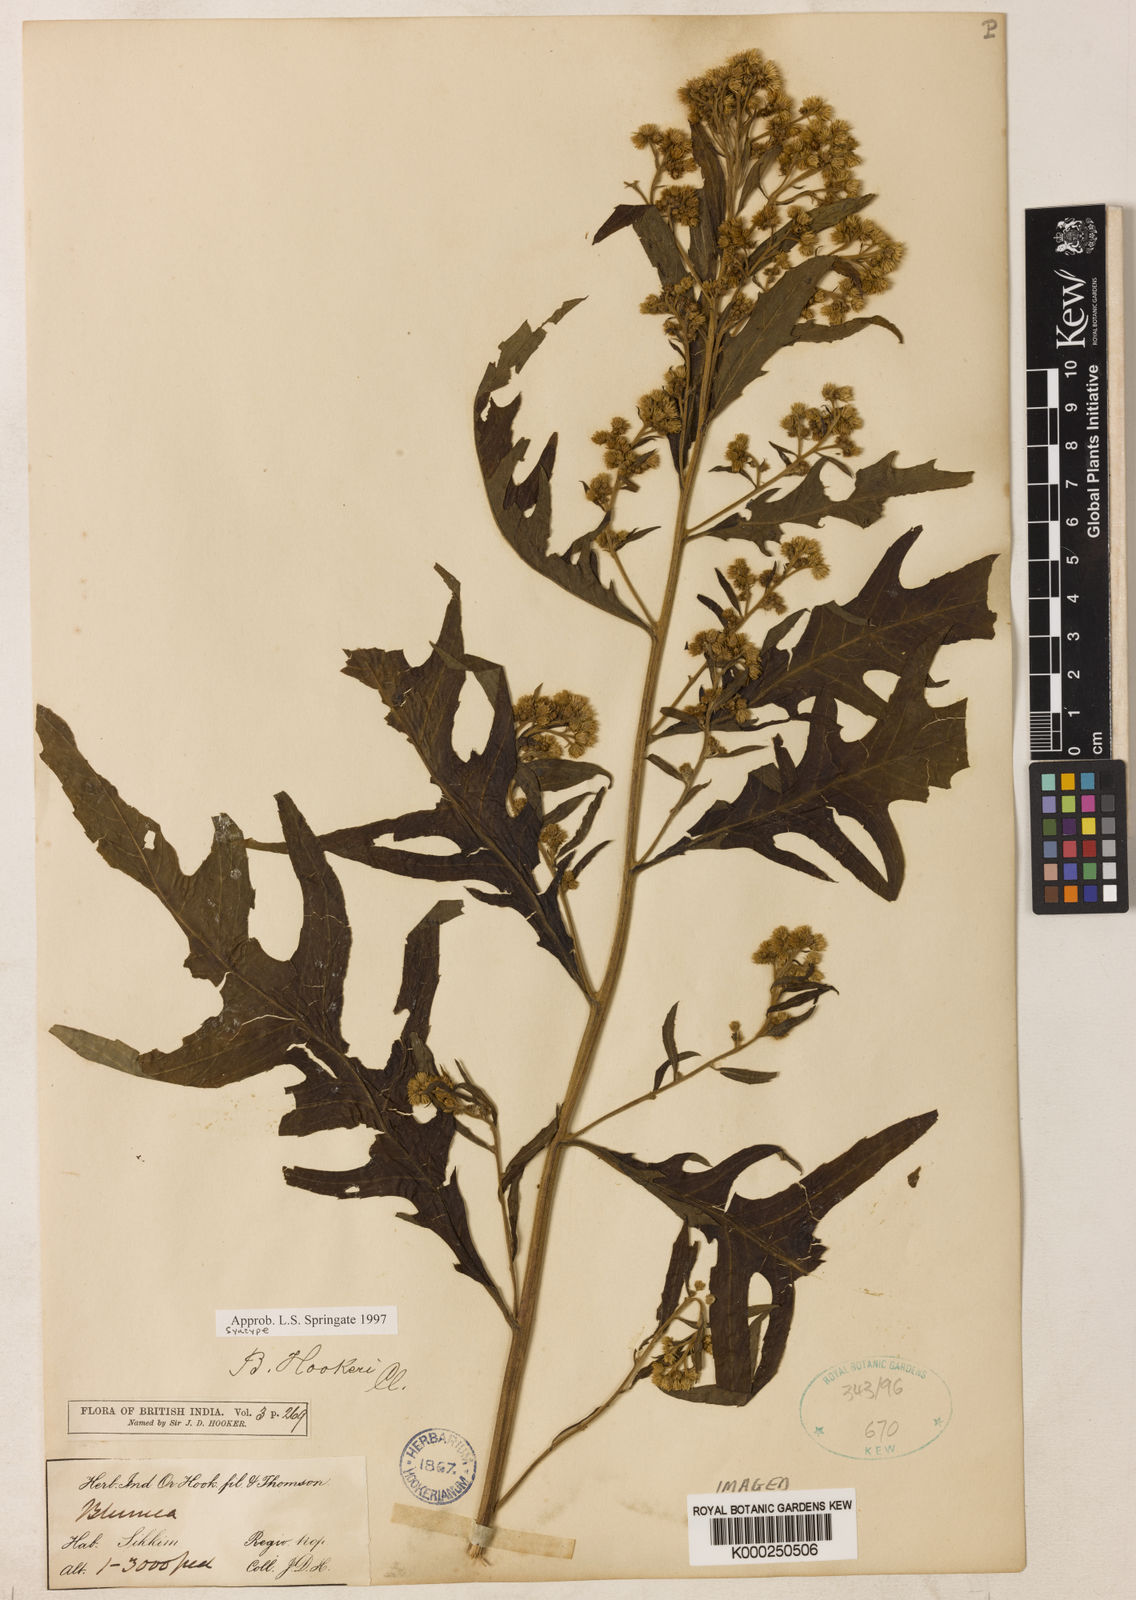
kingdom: Plantae
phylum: Tracheophyta
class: Magnoliopsida
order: Asterales
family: Asteraceae
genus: Blumea
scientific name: Blumea hookeri
